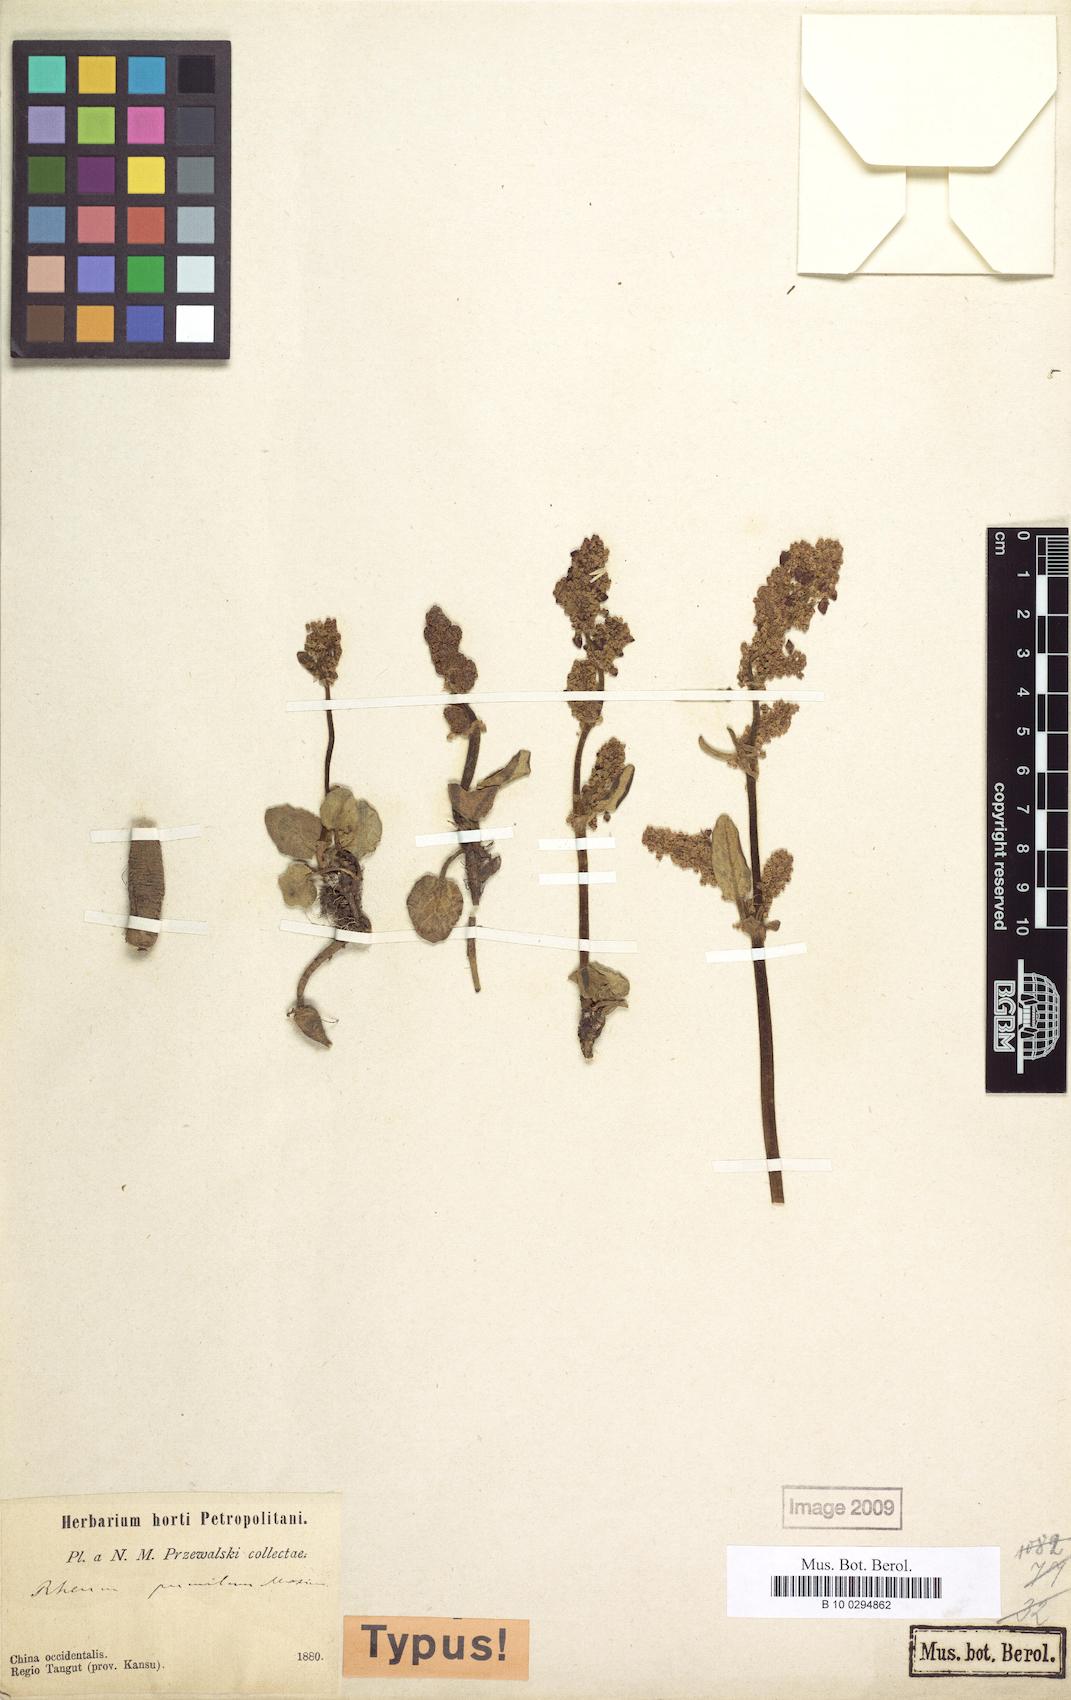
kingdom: Plantae
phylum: Tracheophyta
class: Magnoliopsida
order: Caryophyllales
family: Polygonaceae
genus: Rheum
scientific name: Rheum pumilum
